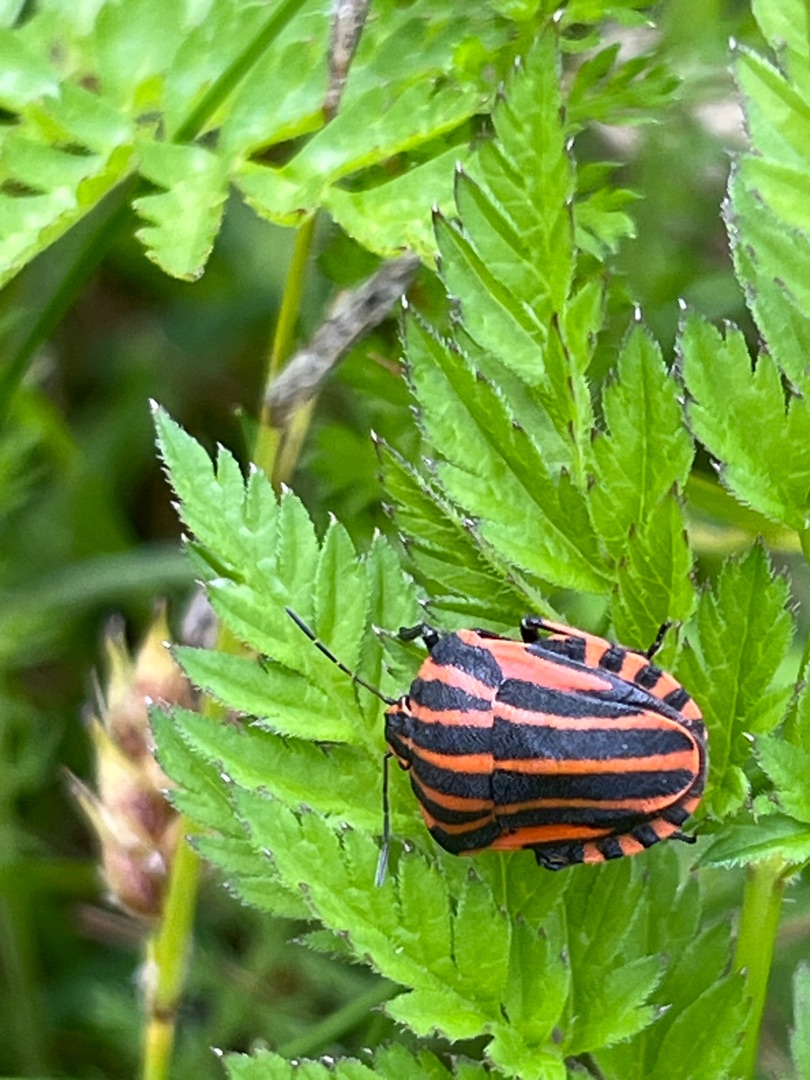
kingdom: Animalia
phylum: Arthropoda
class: Insecta
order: Hemiptera
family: Pentatomidae
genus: Graphosoma
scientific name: Graphosoma italicum
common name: Stribetæge
